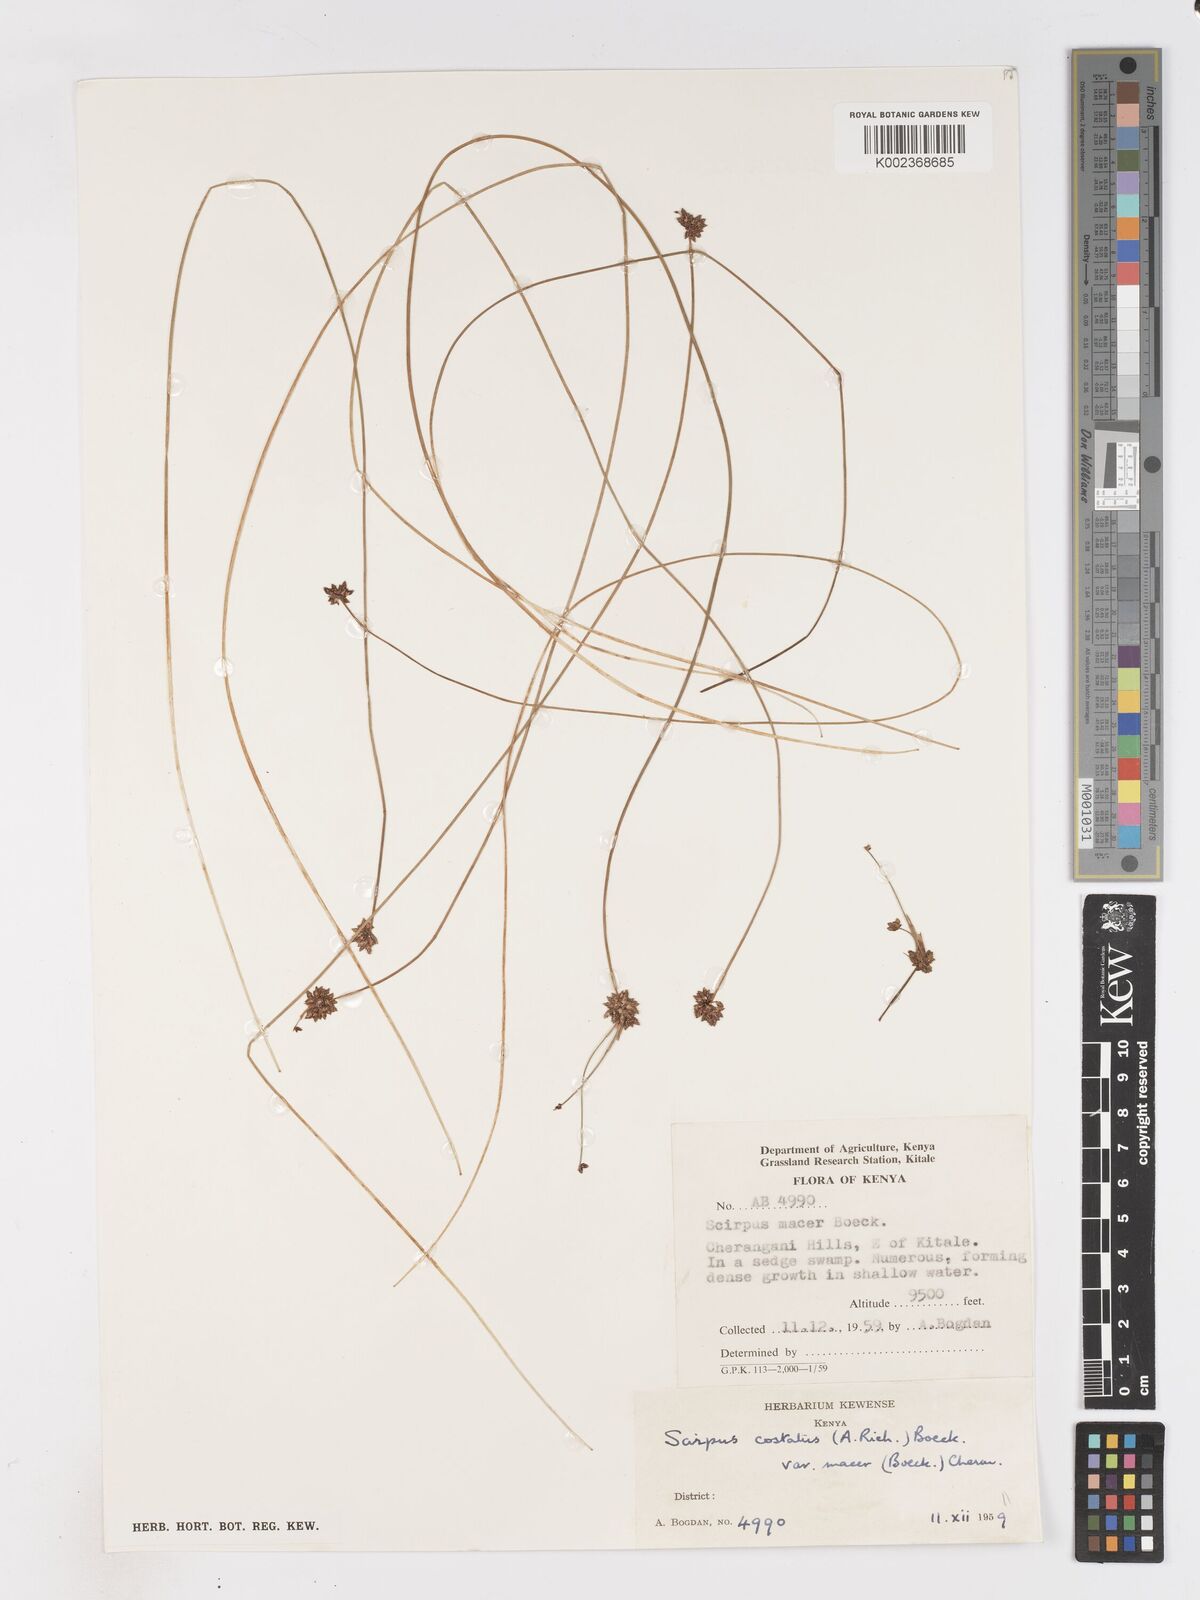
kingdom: Plantae
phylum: Tracheophyta
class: Liliopsida
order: Poales
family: Cyperaceae
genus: Isolepis
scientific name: Isolepis costata
